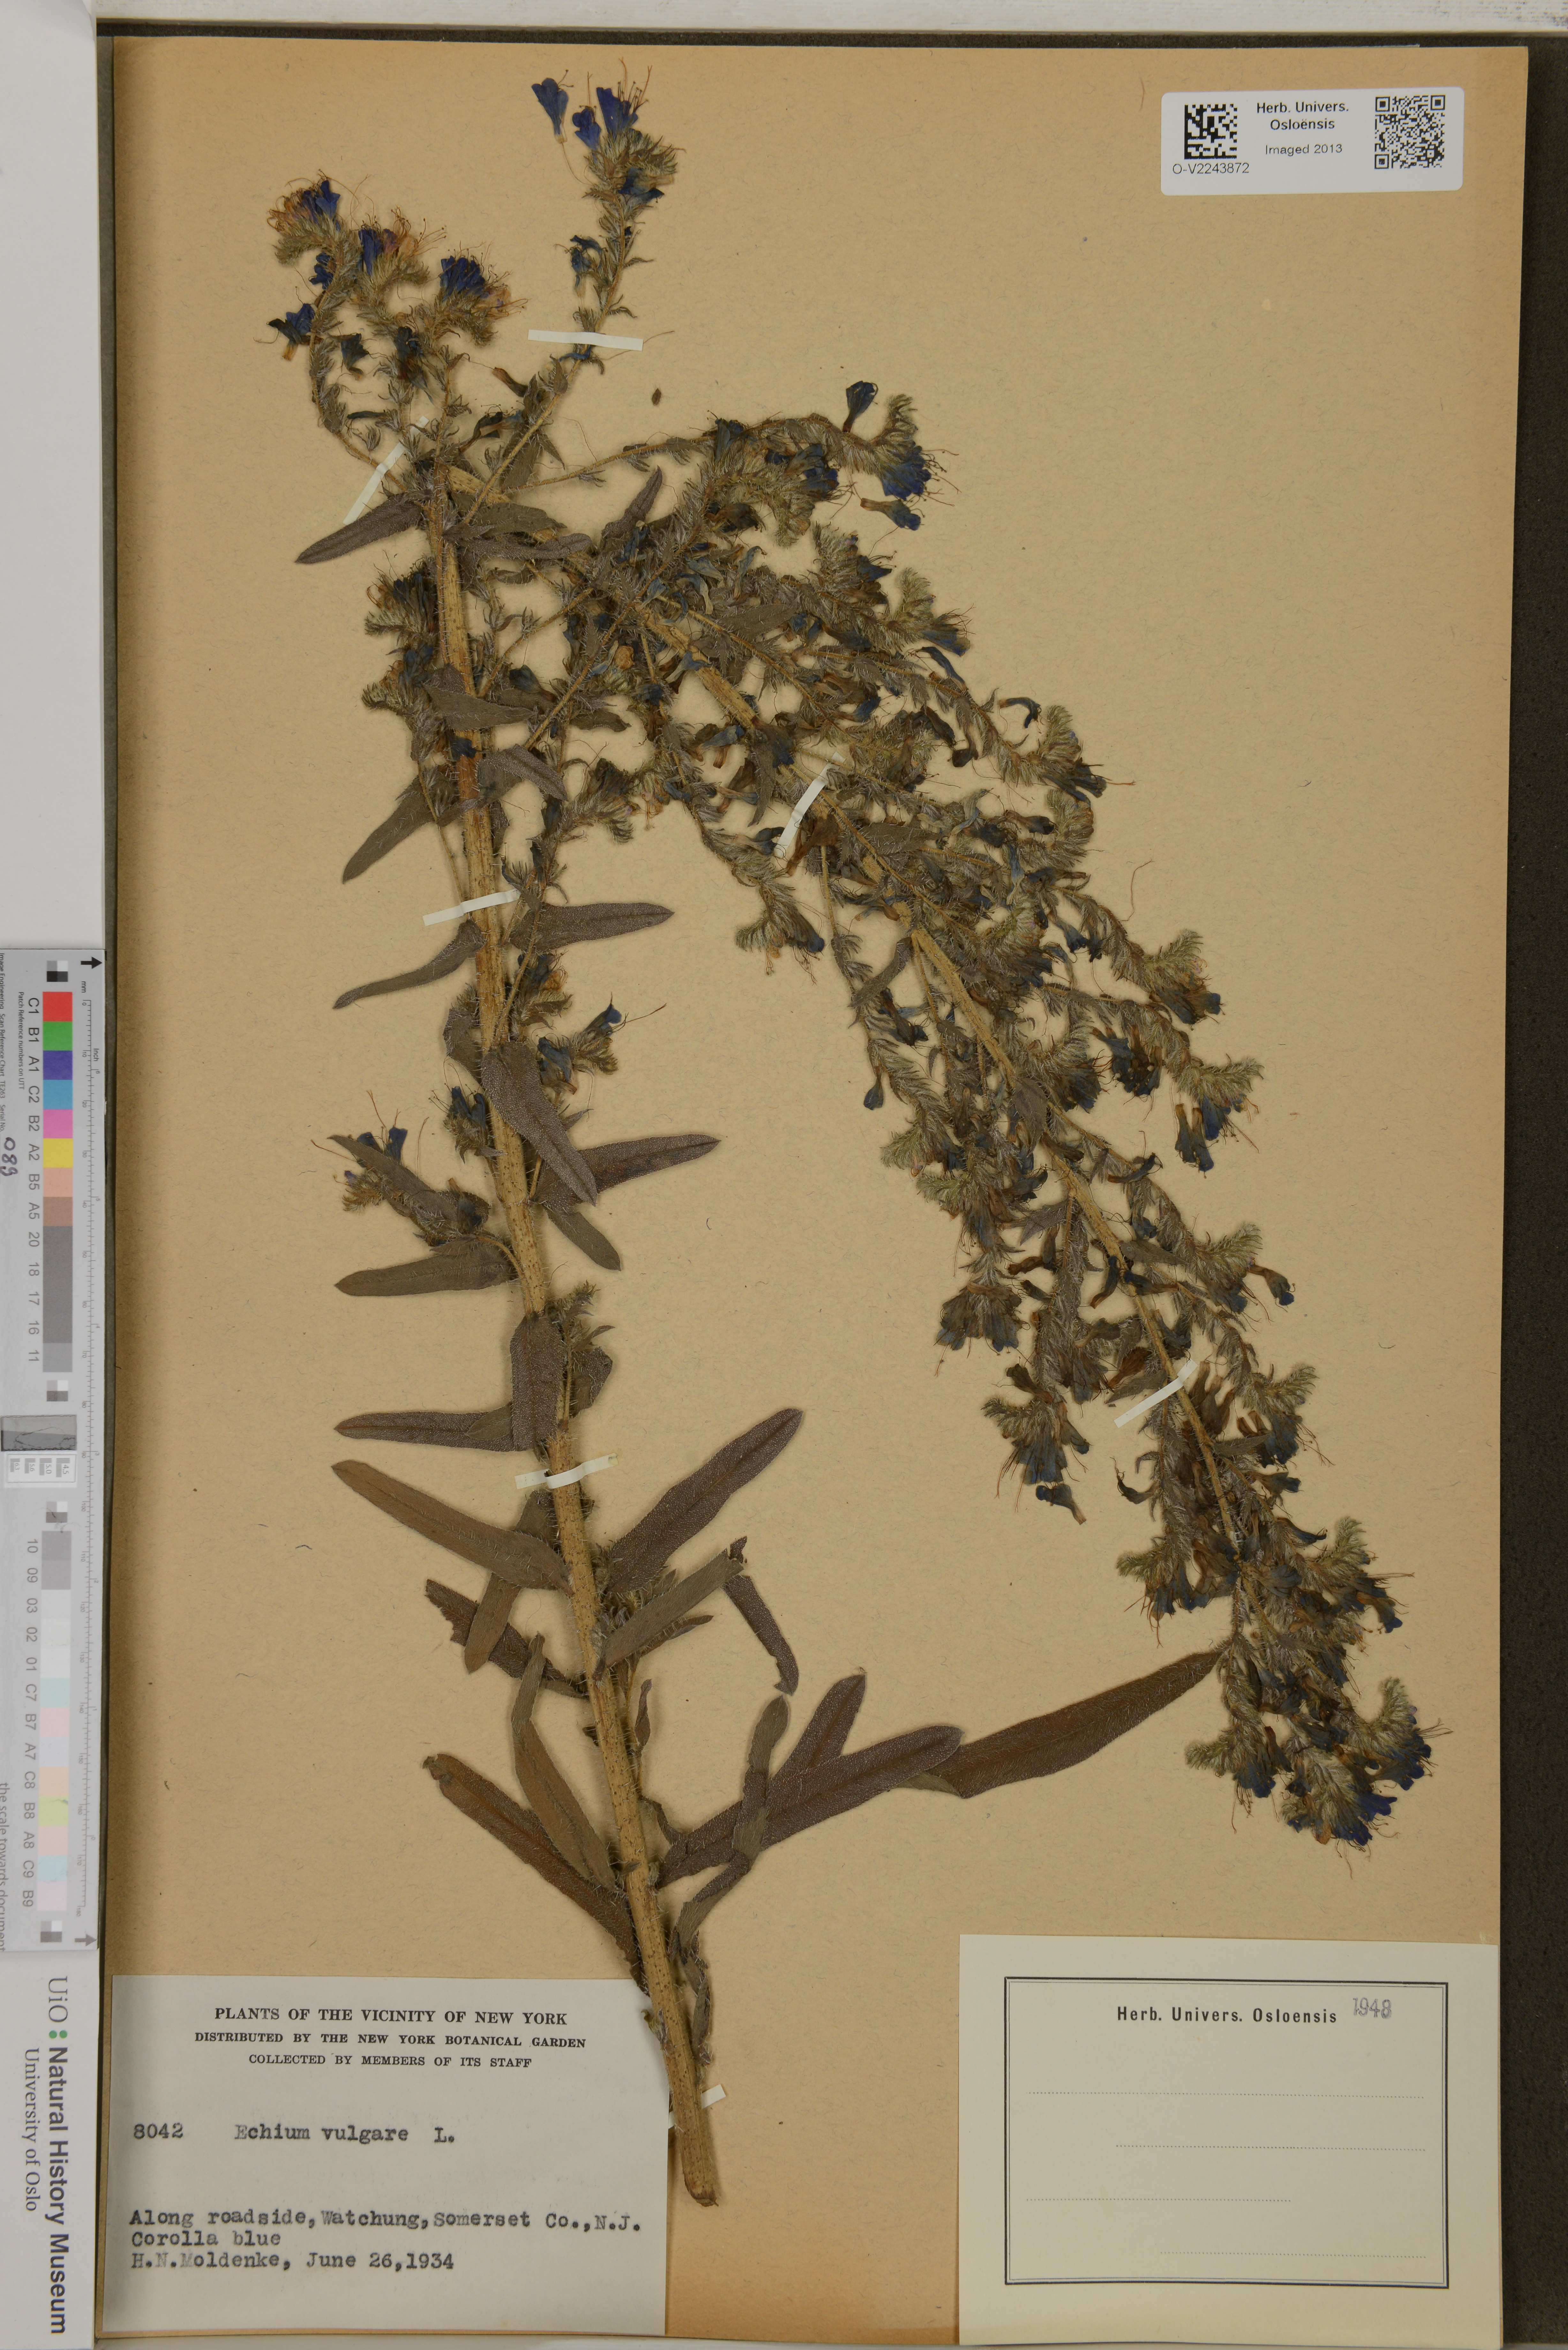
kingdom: Plantae
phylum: Tracheophyta
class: Magnoliopsida
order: Boraginales
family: Boraginaceae
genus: Echium
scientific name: Echium vulgare
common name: Common viper's bugloss
